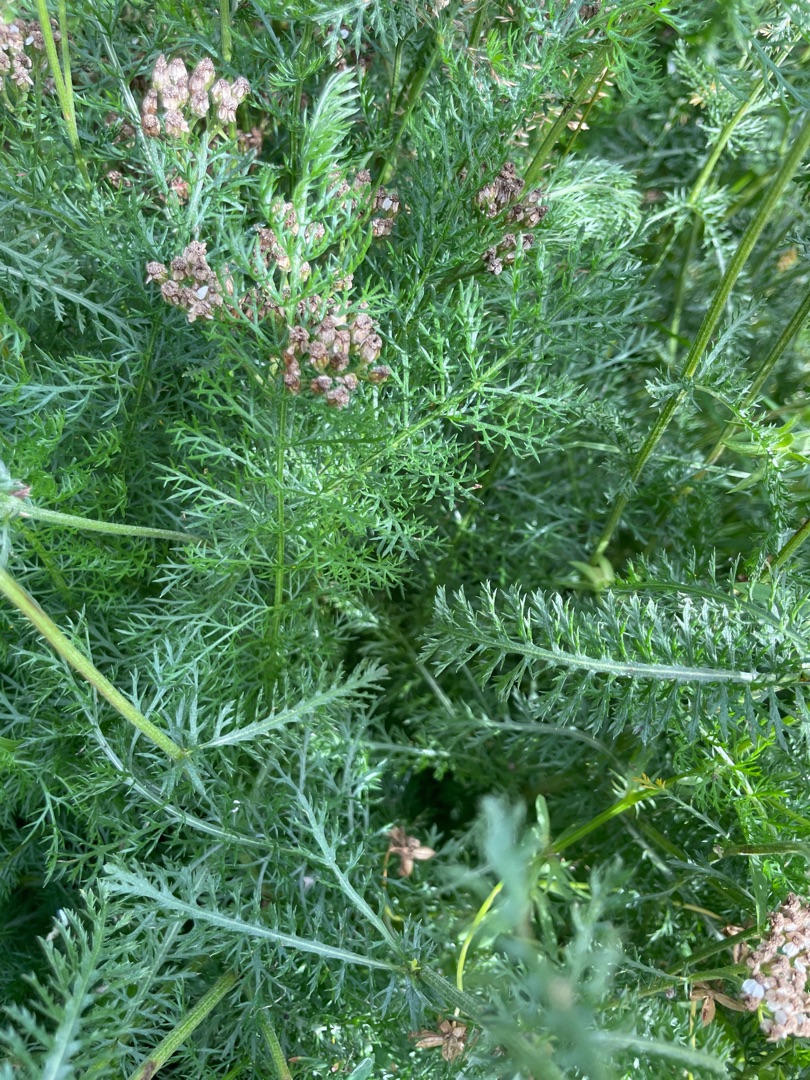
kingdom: Plantae
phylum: Tracheophyta
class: Magnoliopsida
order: Asterales
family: Asteraceae
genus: Achillea
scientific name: Achillea millefolium
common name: Almindelig røllike
